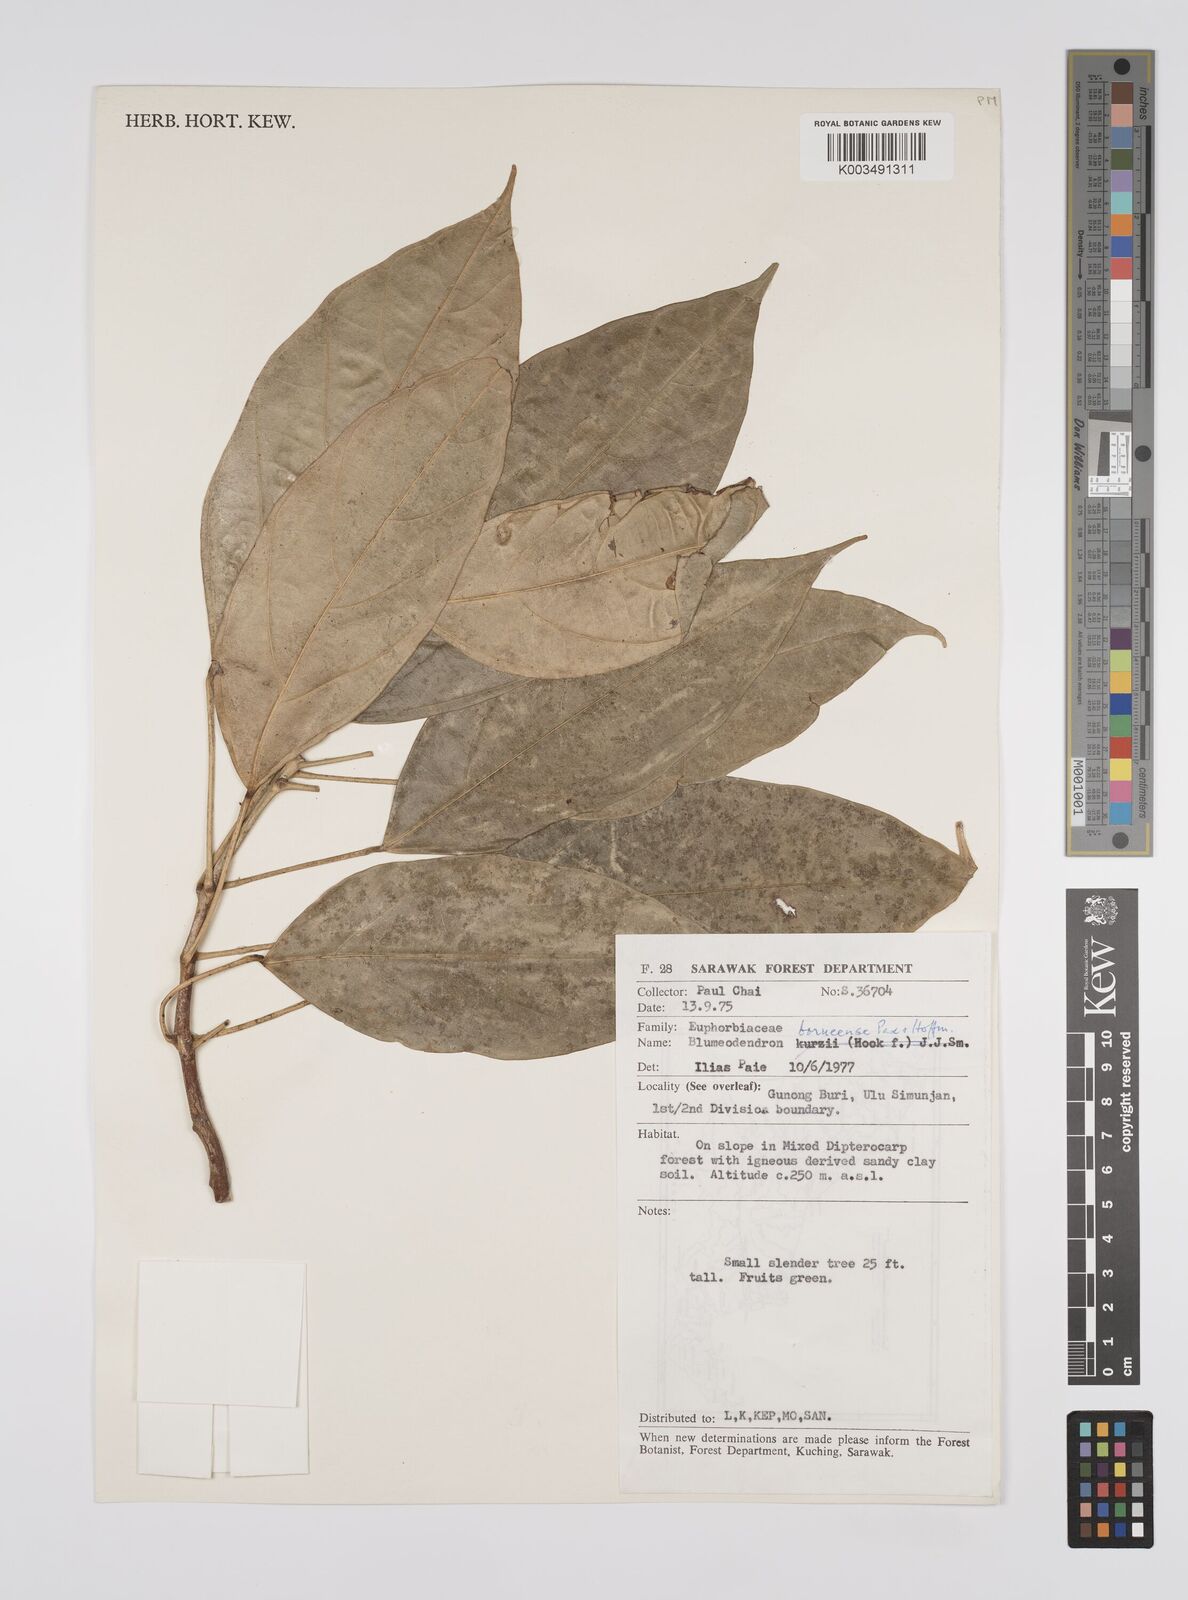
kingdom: Plantae
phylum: Tracheophyta
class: Magnoliopsida
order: Malpighiales
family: Euphorbiaceae
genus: Blumeodendron
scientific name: Blumeodendron borneense
